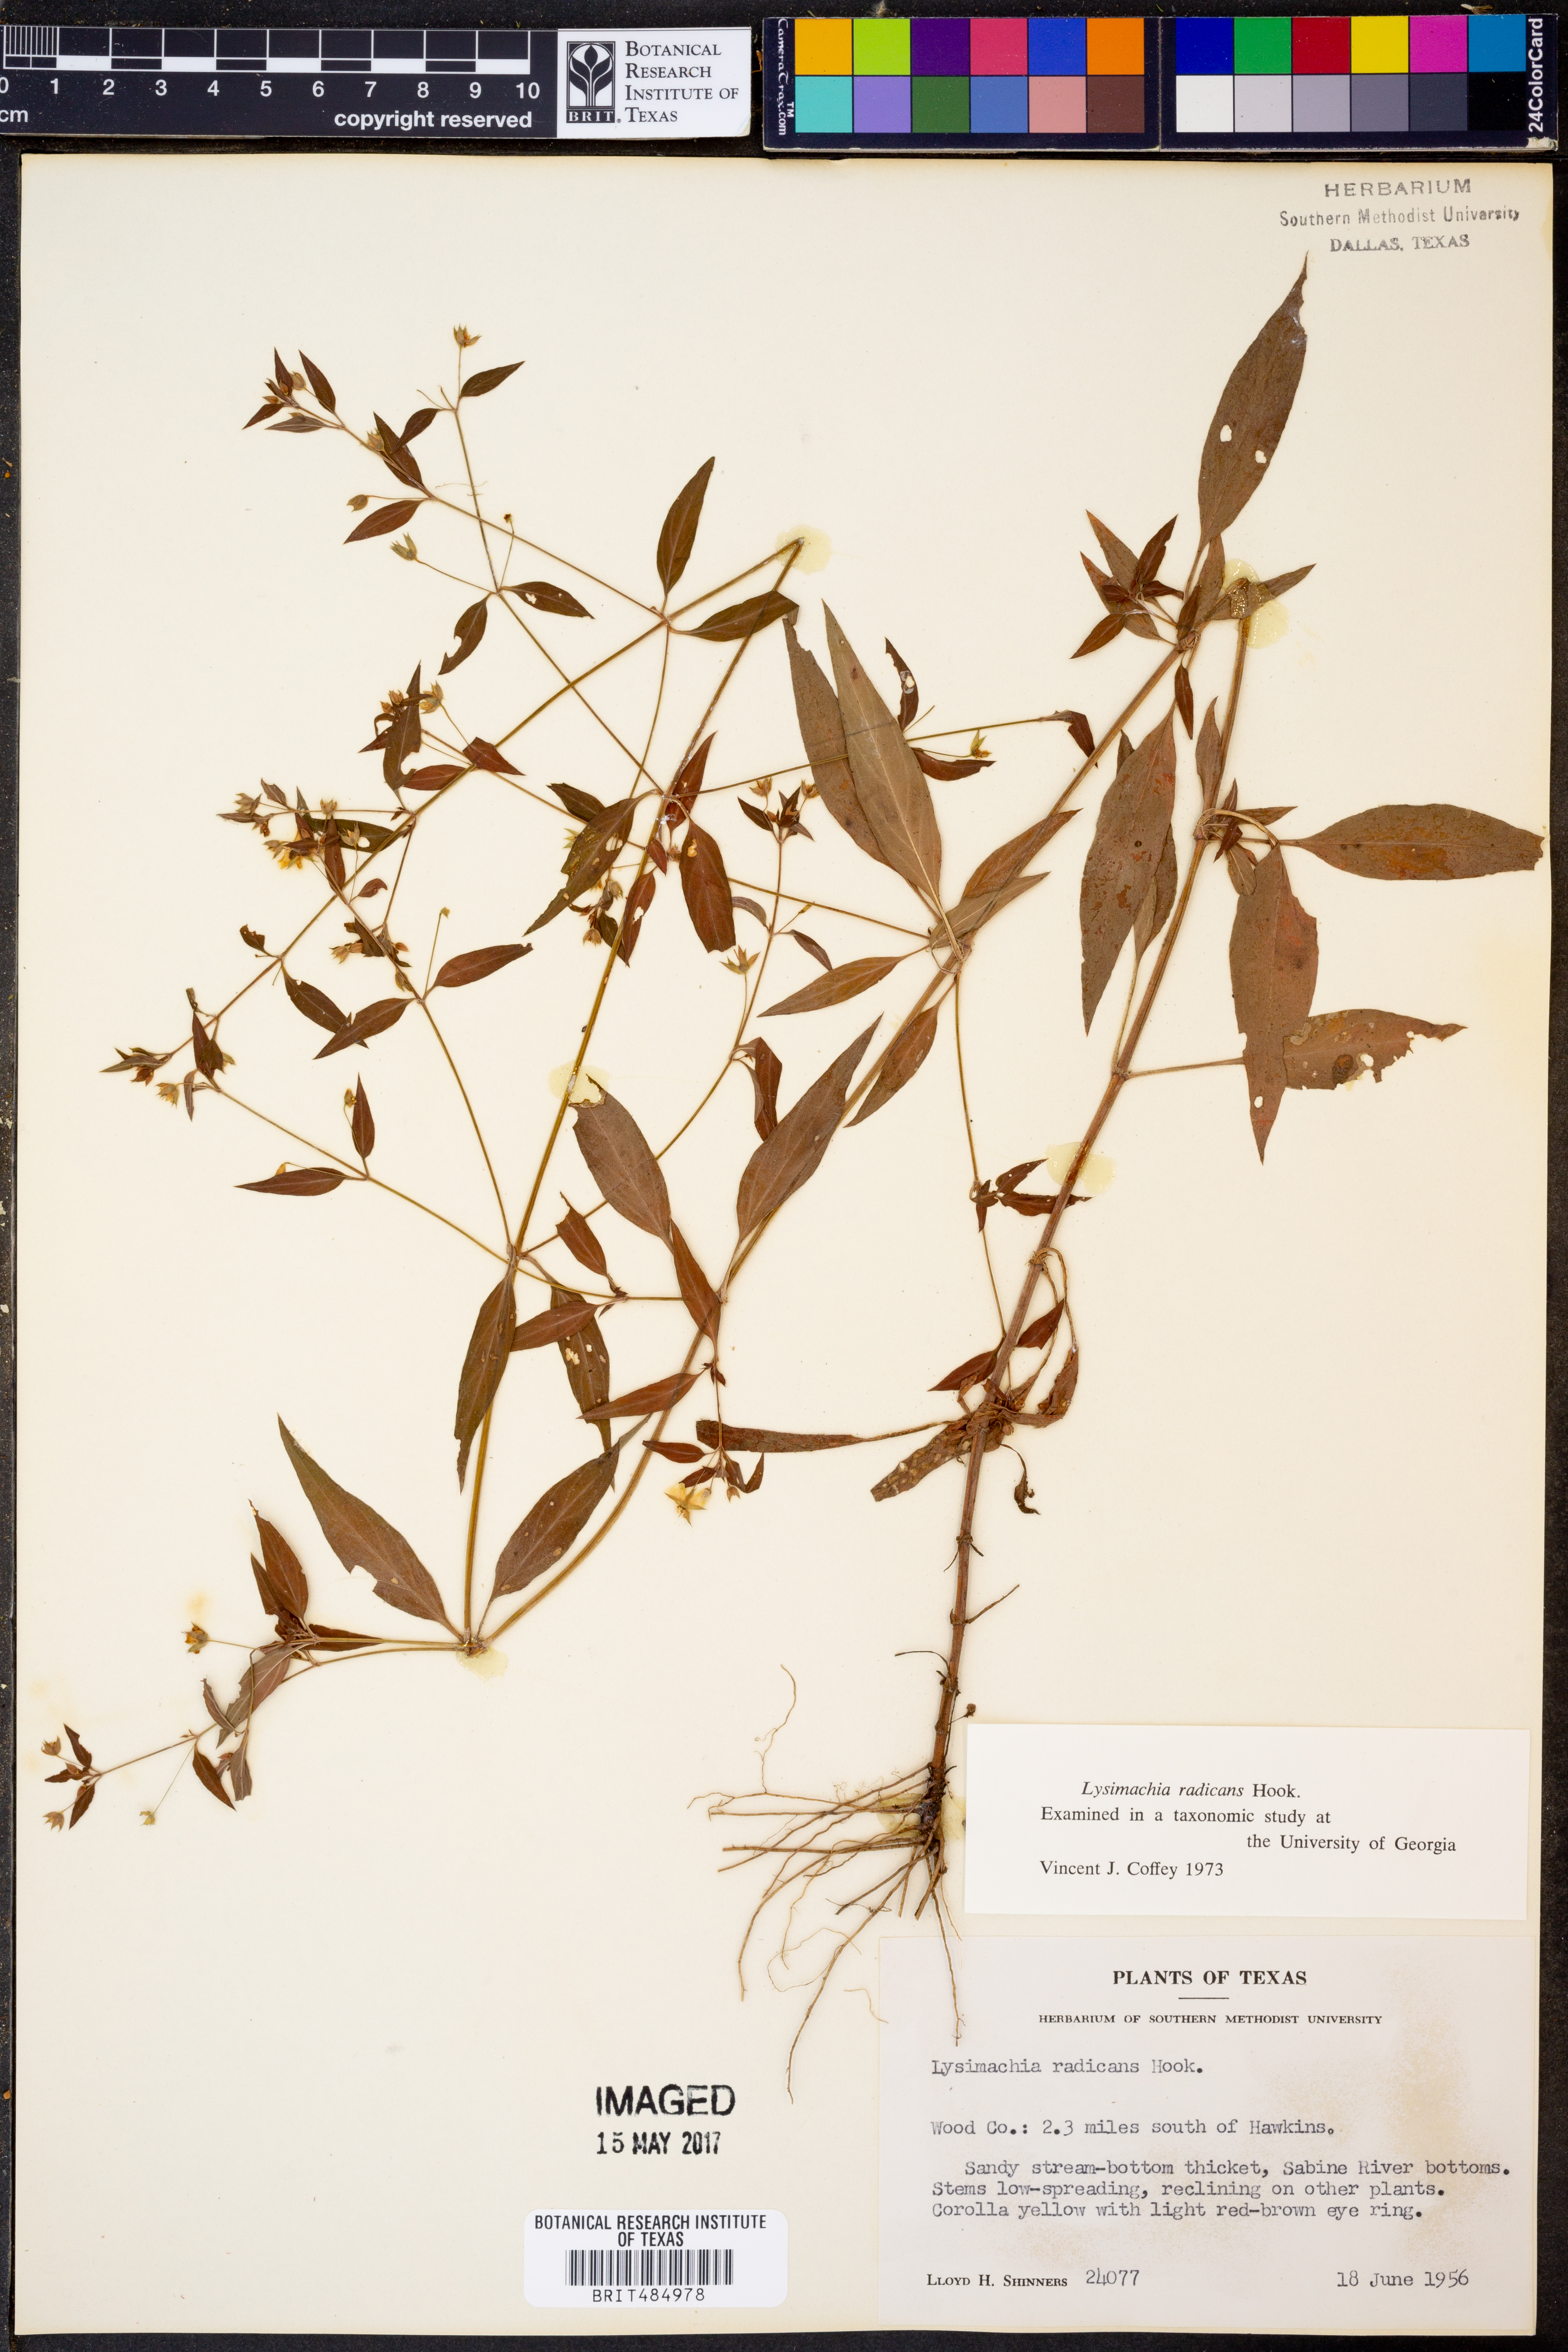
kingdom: Plantae
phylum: Tracheophyta
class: Magnoliopsida
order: Ericales
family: Primulaceae
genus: Lysimachia
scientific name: Lysimachia radicans
